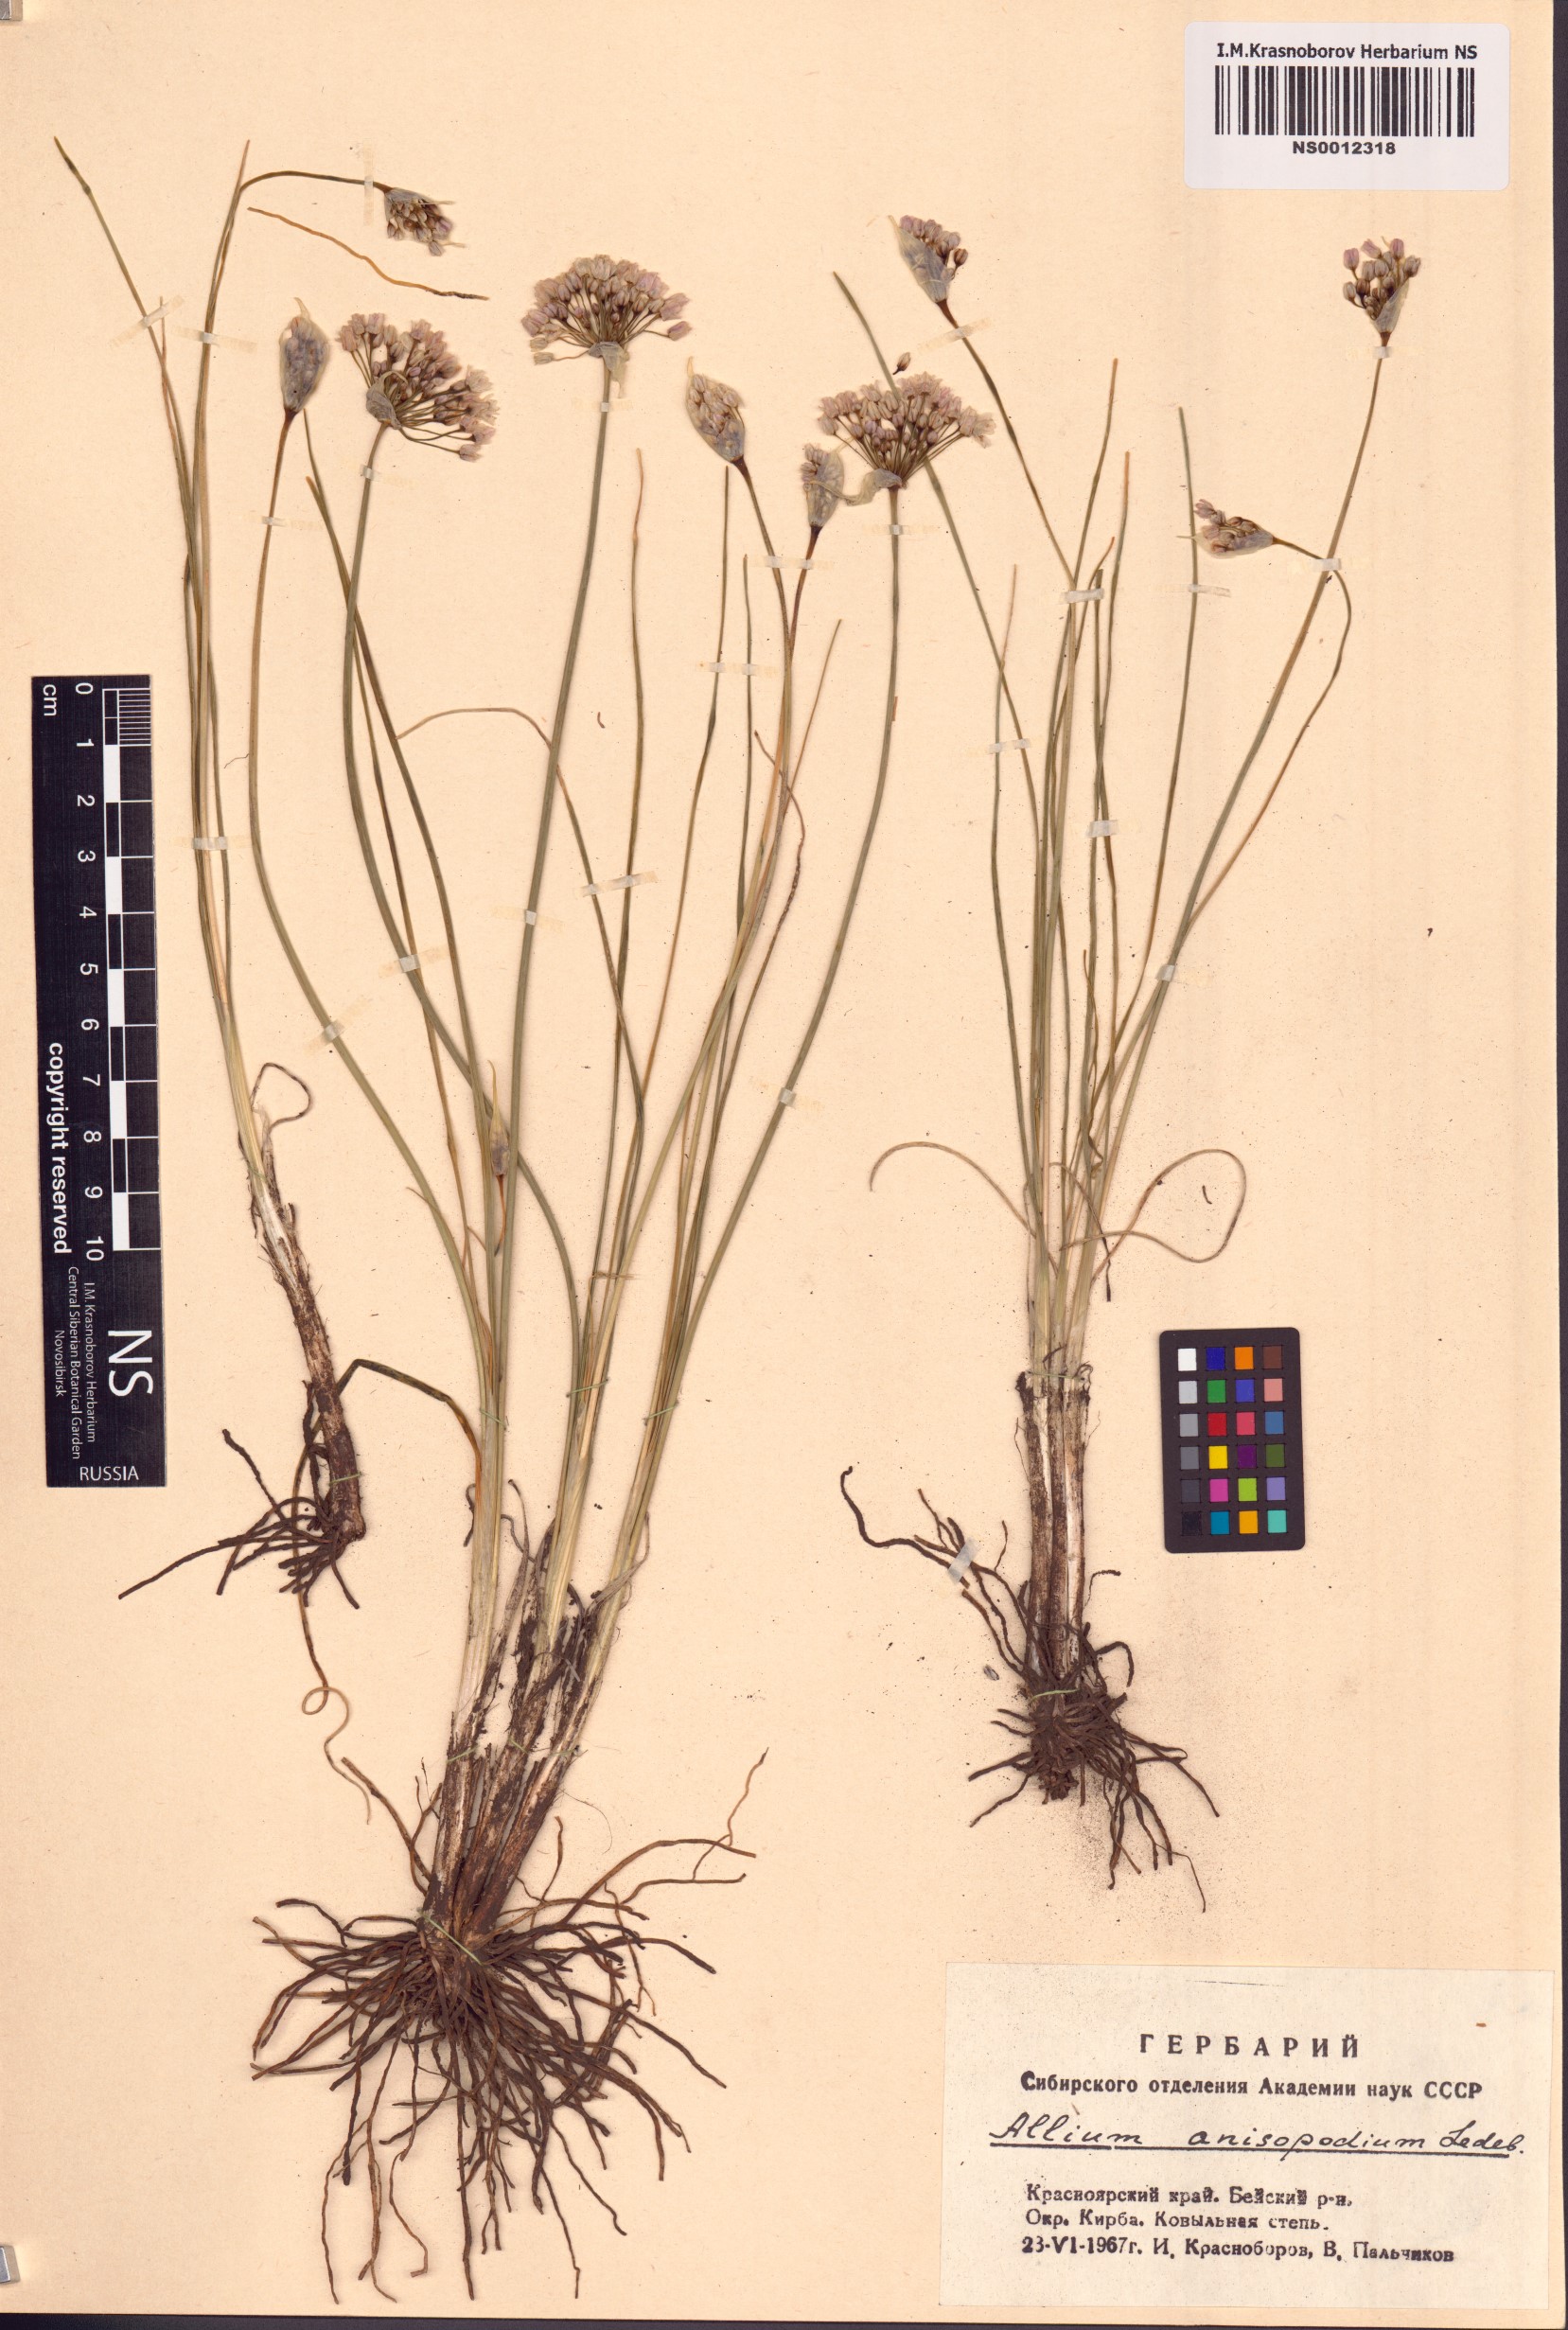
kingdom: Plantae
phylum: Tracheophyta
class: Liliopsida
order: Asparagales
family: Amaryllidaceae
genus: Allium
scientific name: Allium anisopodium
